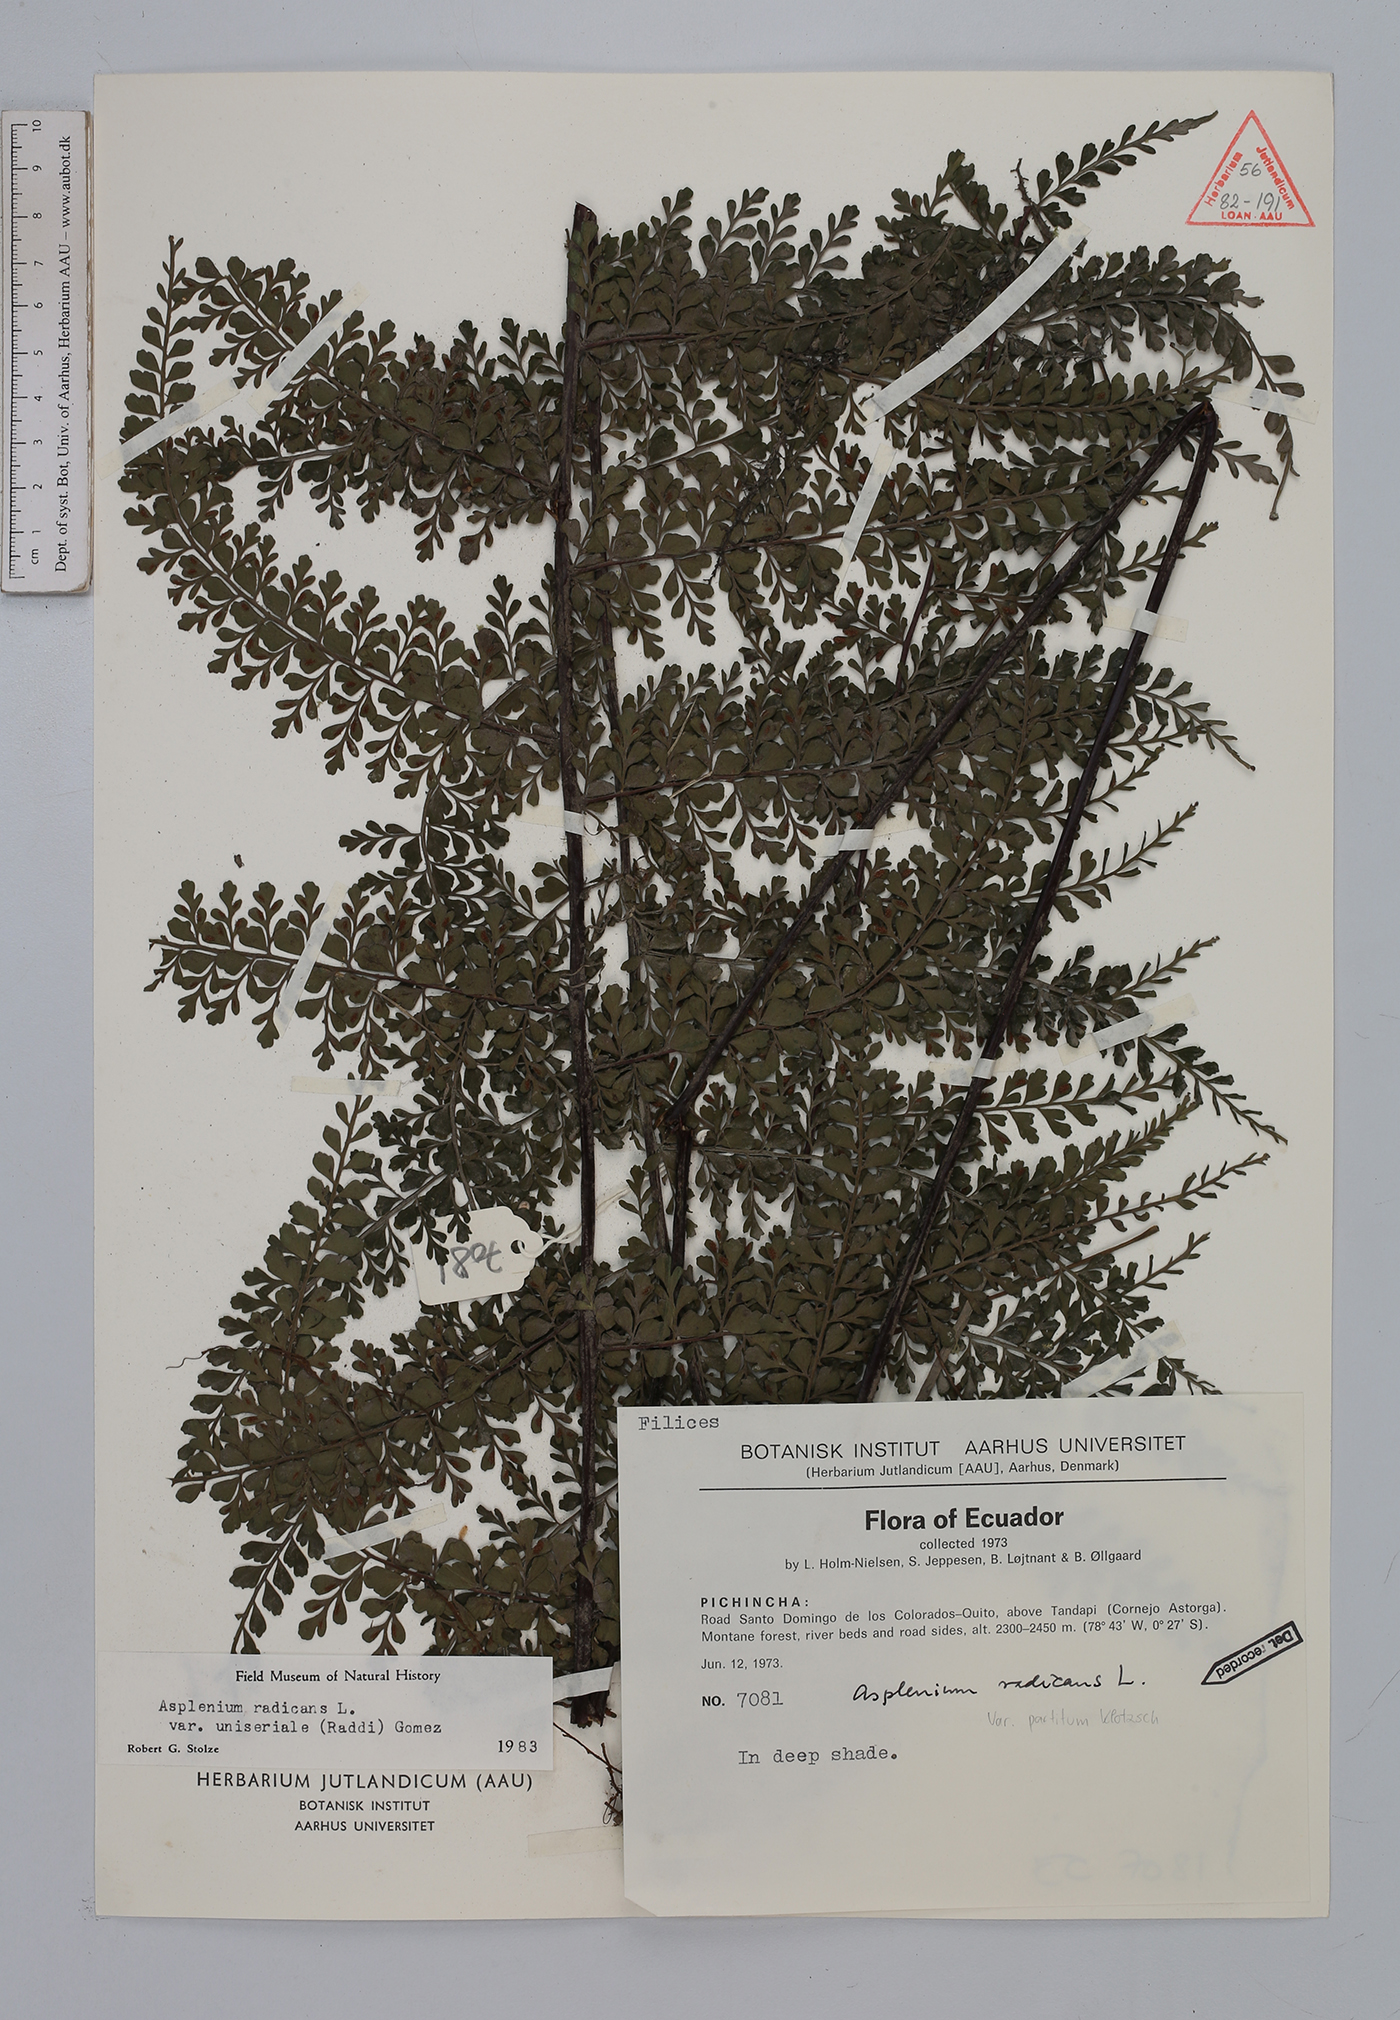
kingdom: Plantae
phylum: Tracheophyta
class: Polypodiopsida
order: Polypodiales
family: Aspleniaceae
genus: Asplenium
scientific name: Asplenium flabellulatum
